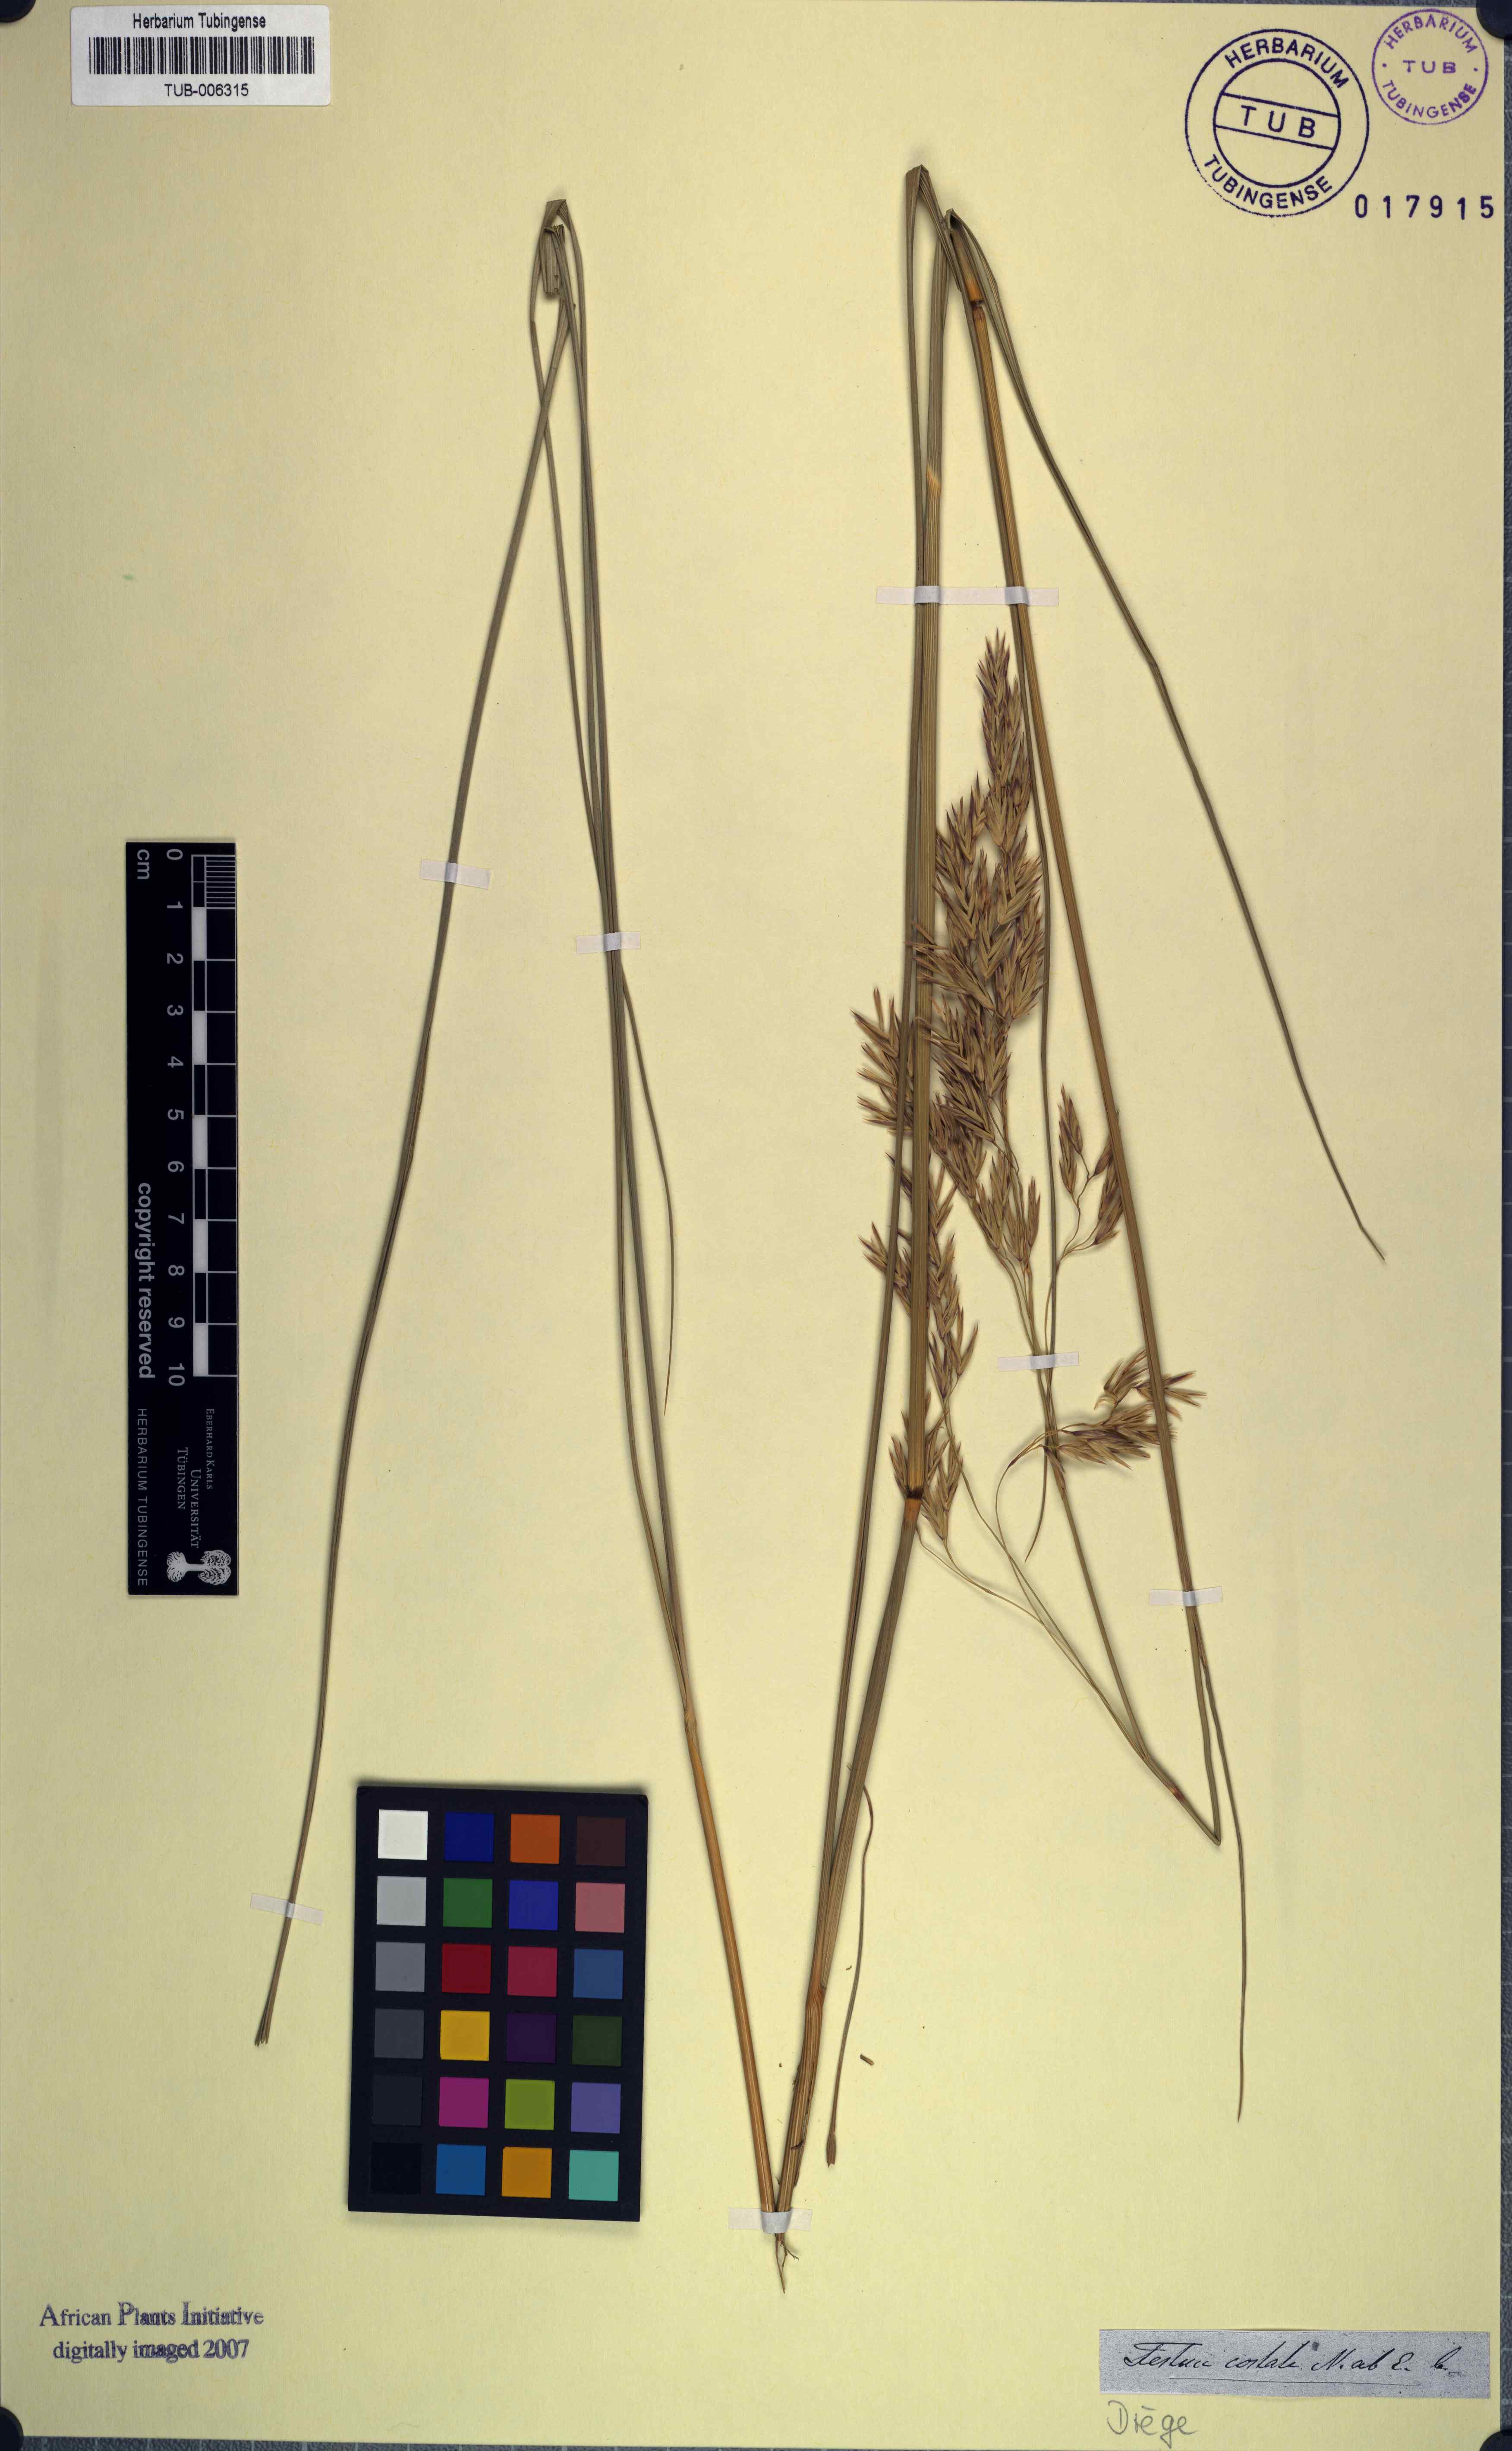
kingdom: Plantae
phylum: Tracheophyta
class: Liliopsida
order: Poales
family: Poaceae
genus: Festuca
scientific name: Festuca costata
